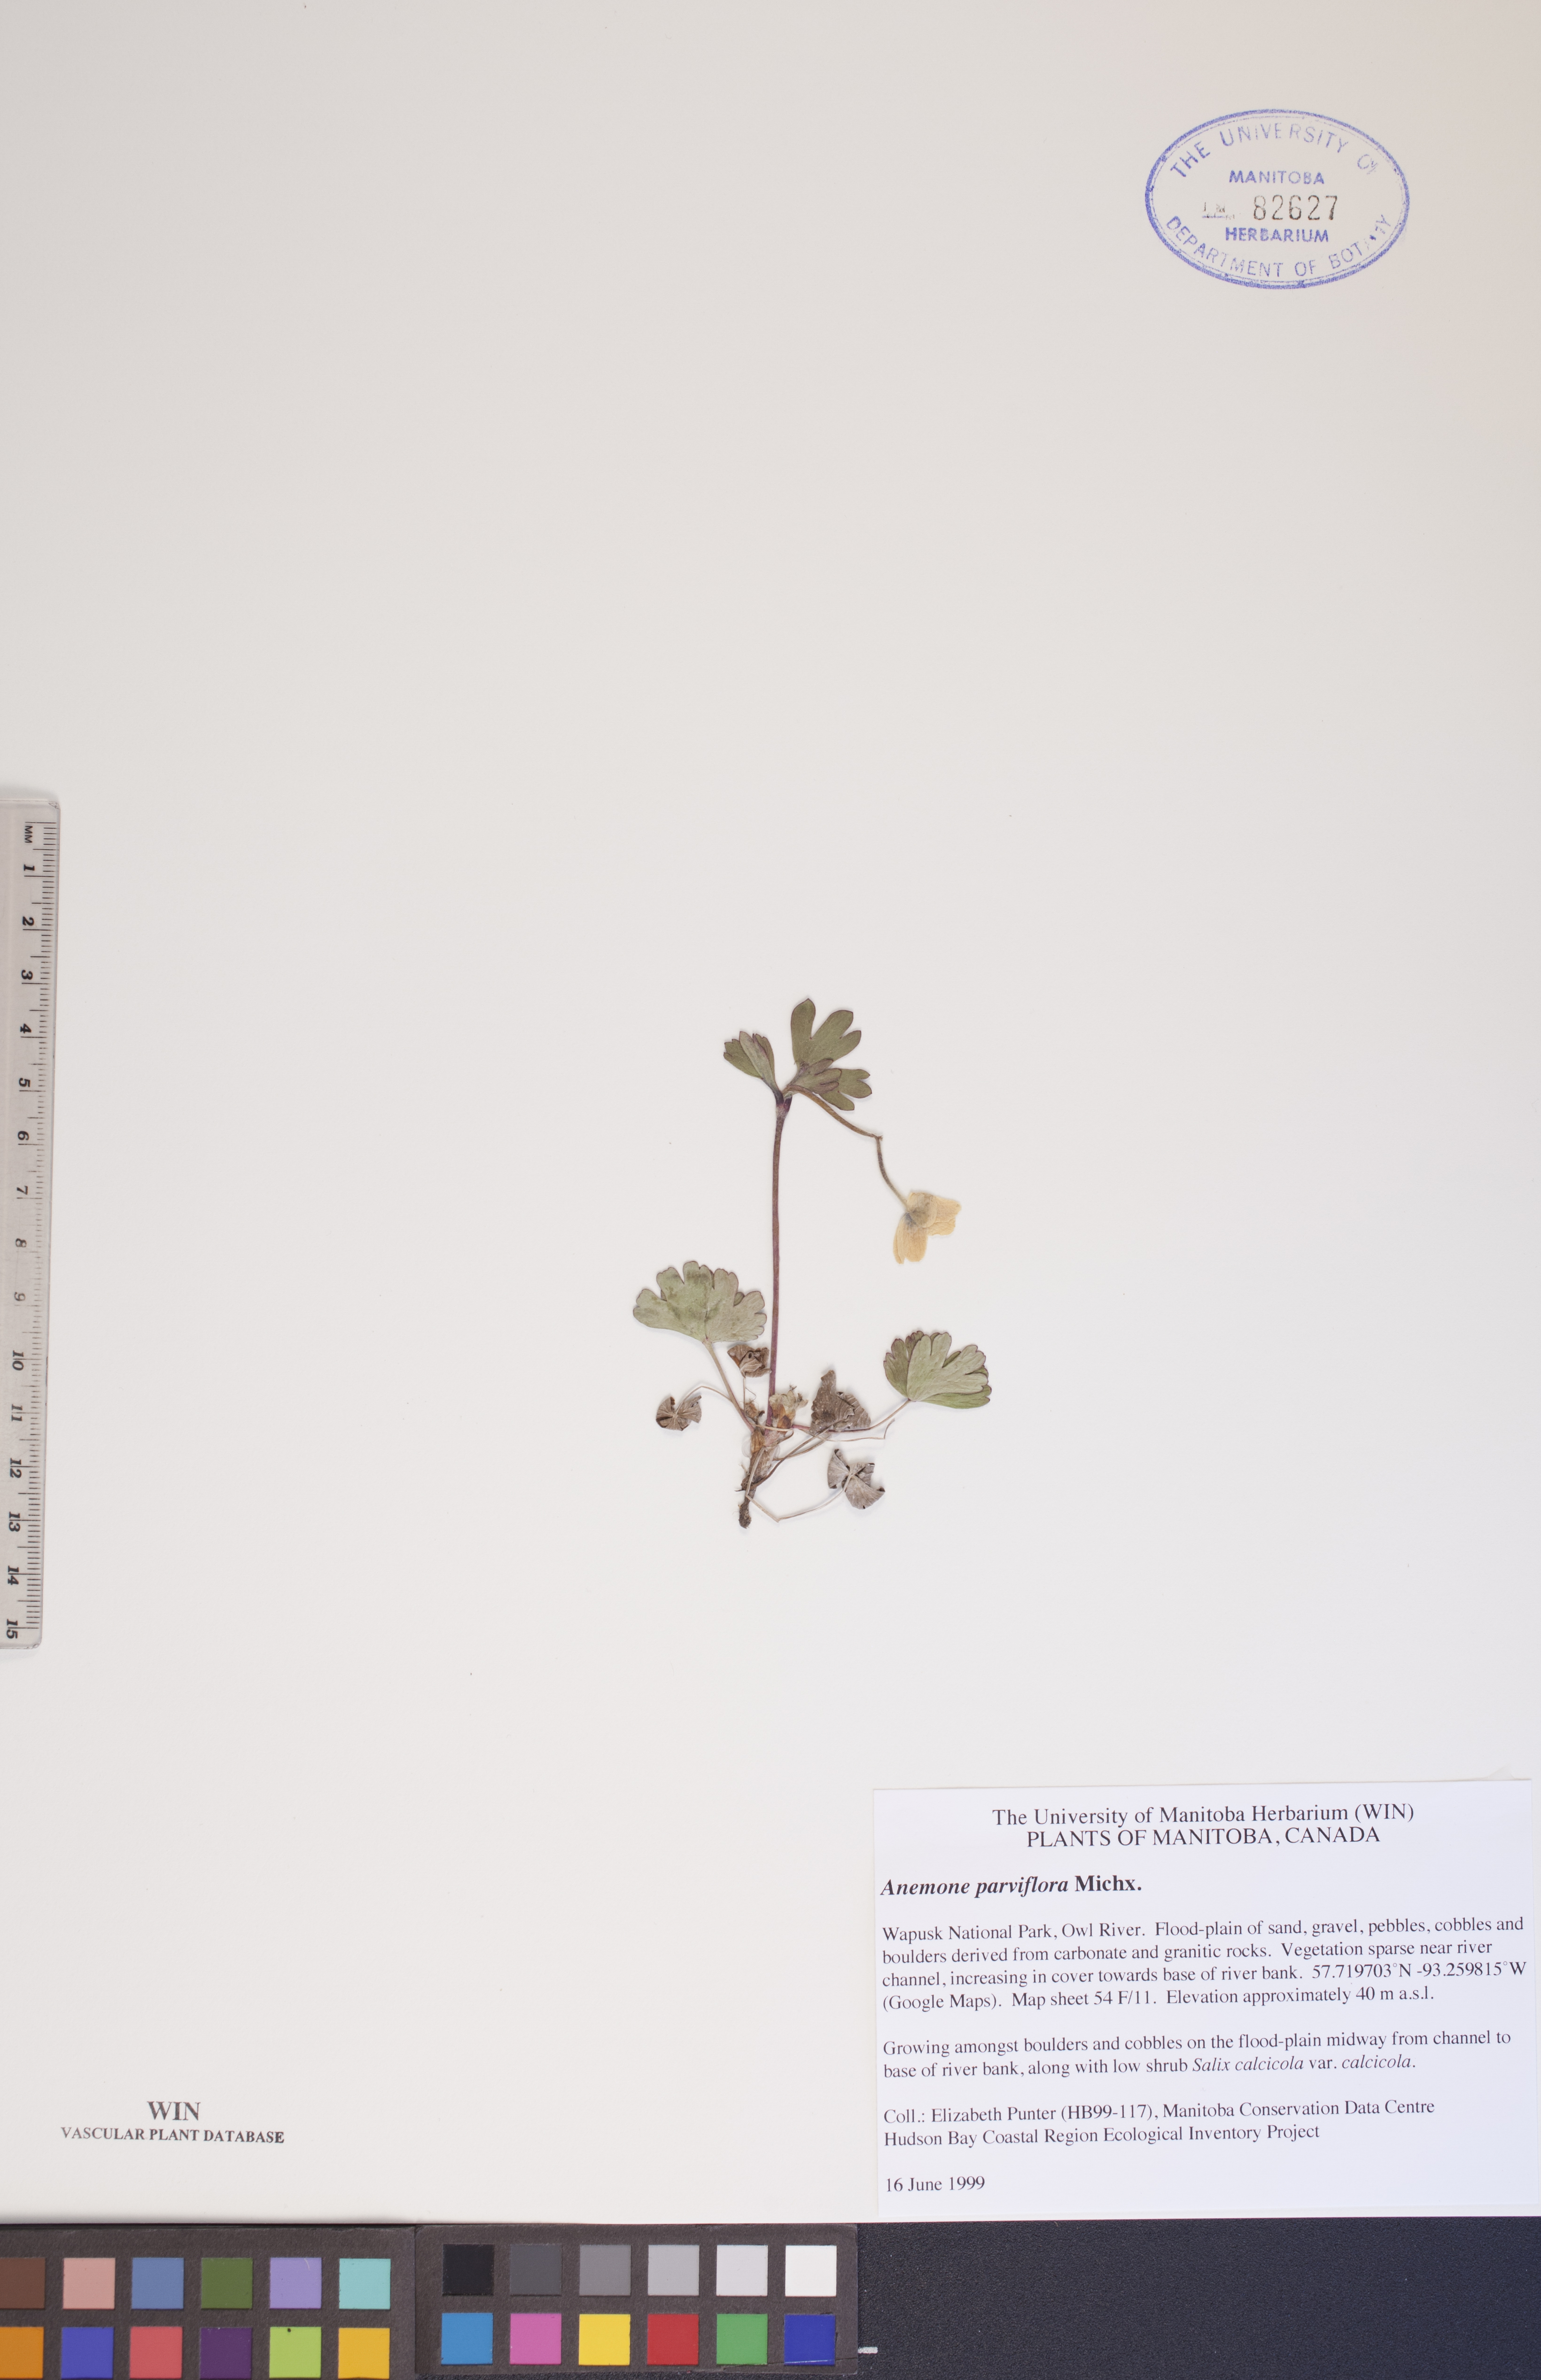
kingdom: Plantae
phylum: Tracheophyta
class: Magnoliopsida
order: Ranunculales
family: Ranunculaceae
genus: Anemone
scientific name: Anemone parviflora
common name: Northern anemone
